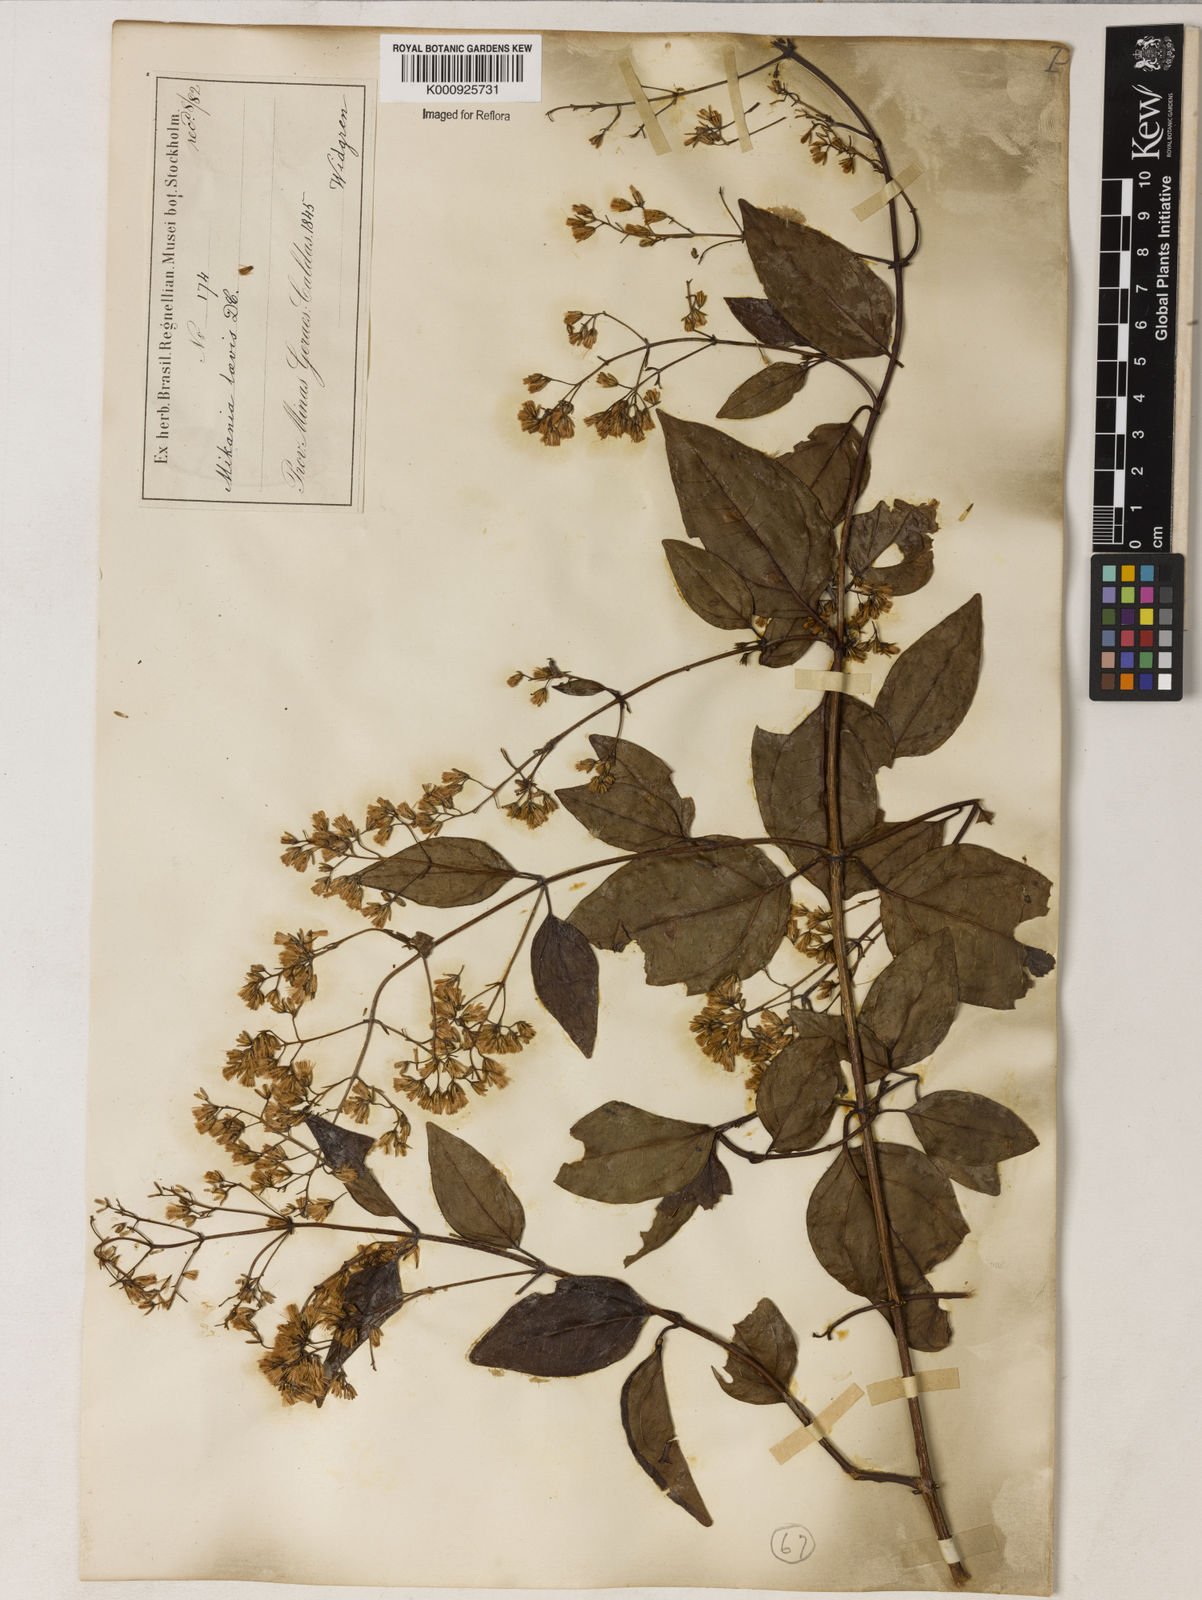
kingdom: Plantae
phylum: Tracheophyta
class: Magnoliopsida
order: Asterales
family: Asteraceae
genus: Mikania
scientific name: Mikania trinervis
